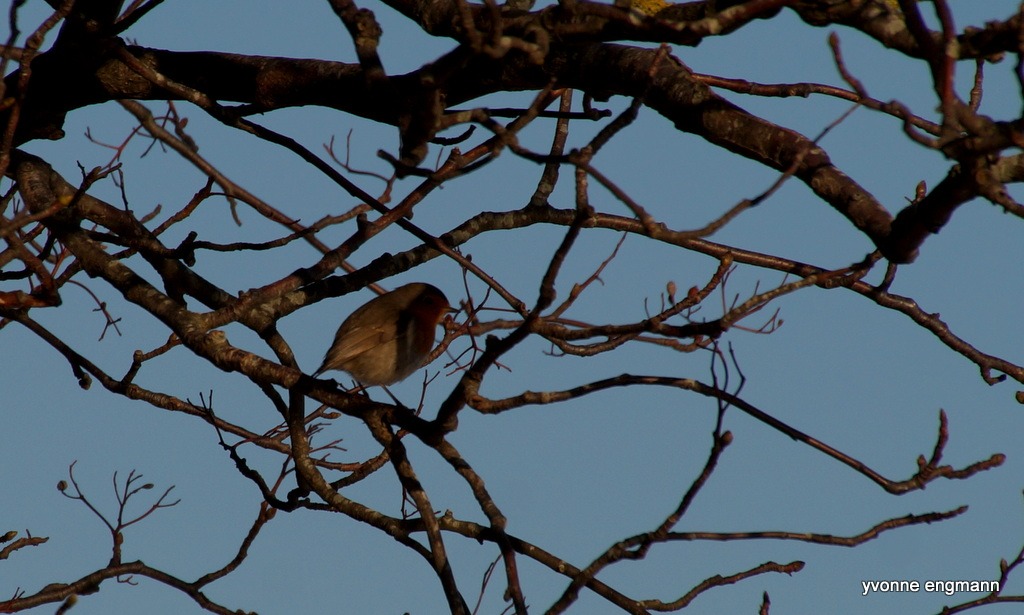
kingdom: Animalia
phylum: Chordata
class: Aves
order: Passeriformes
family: Muscicapidae
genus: Erithacus
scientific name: Erithacus rubecula
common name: Rødhals/rødkælk
